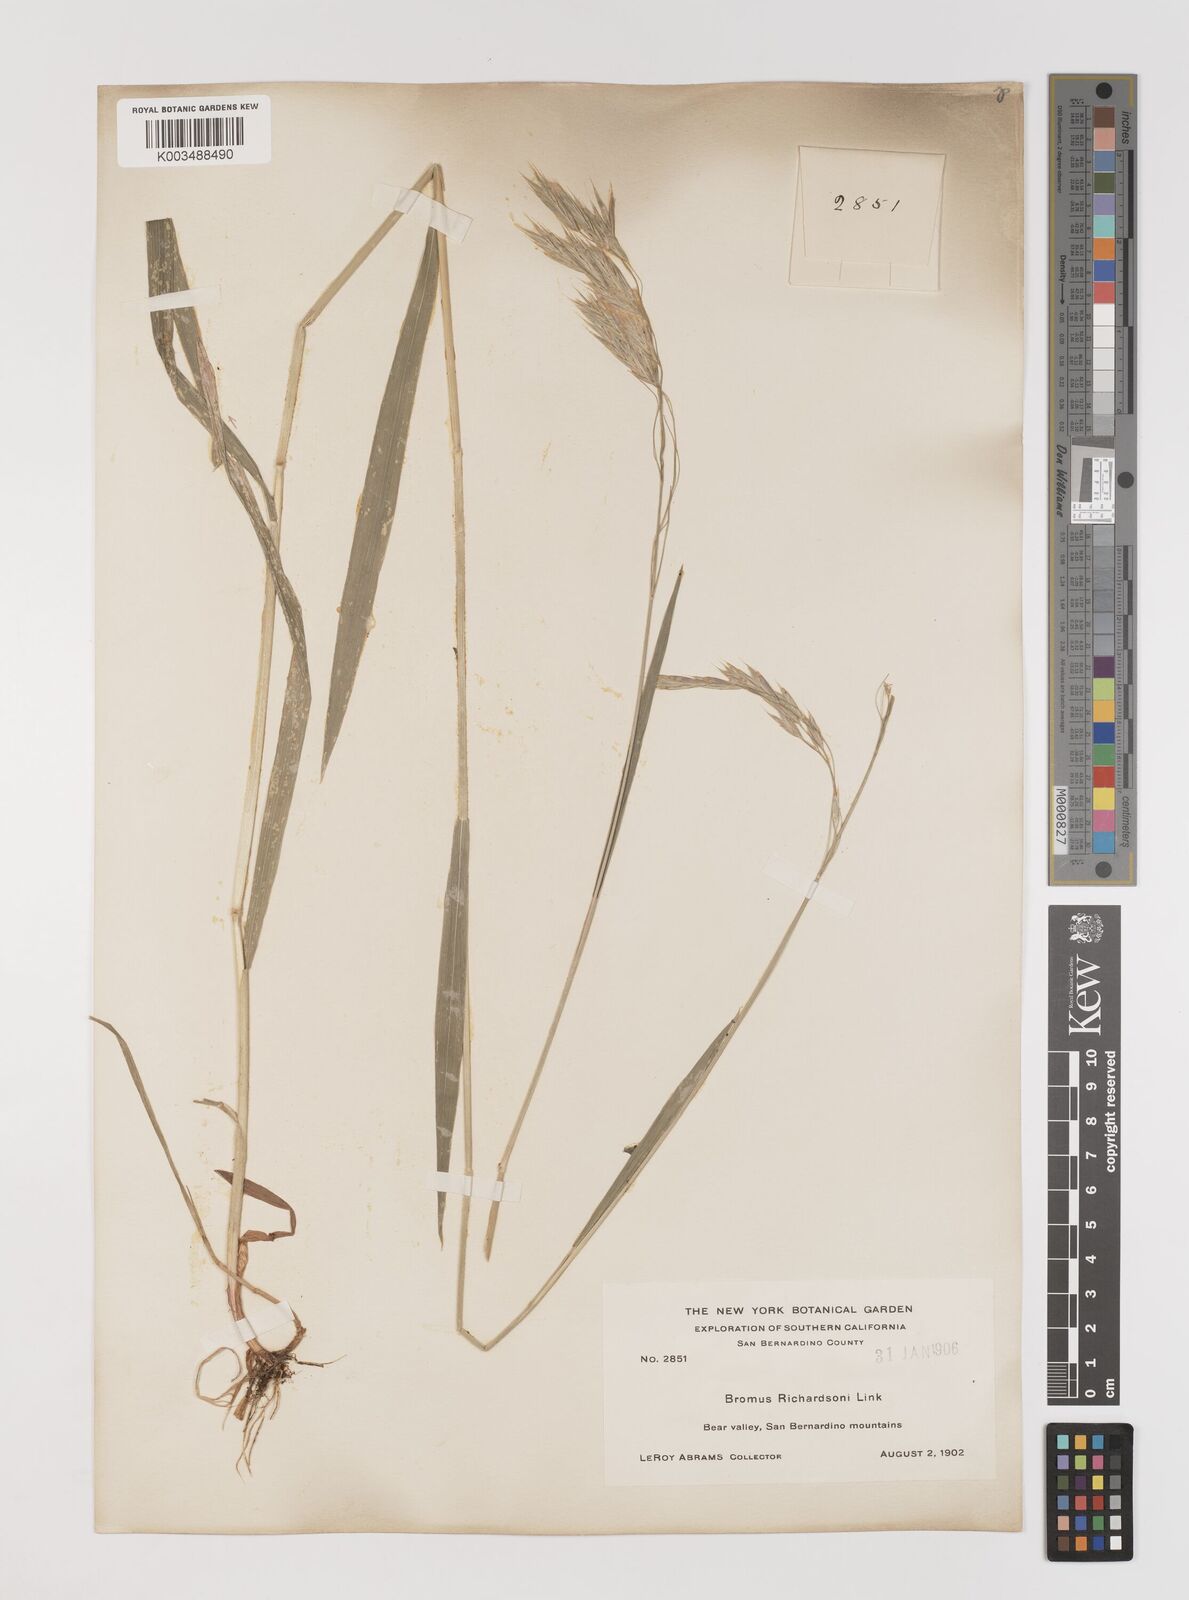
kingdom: Plantae
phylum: Tracheophyta
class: Liliopsida
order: Poales
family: Poaceae
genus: Bromus
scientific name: Bromus richardsonii
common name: Richardson's brome
